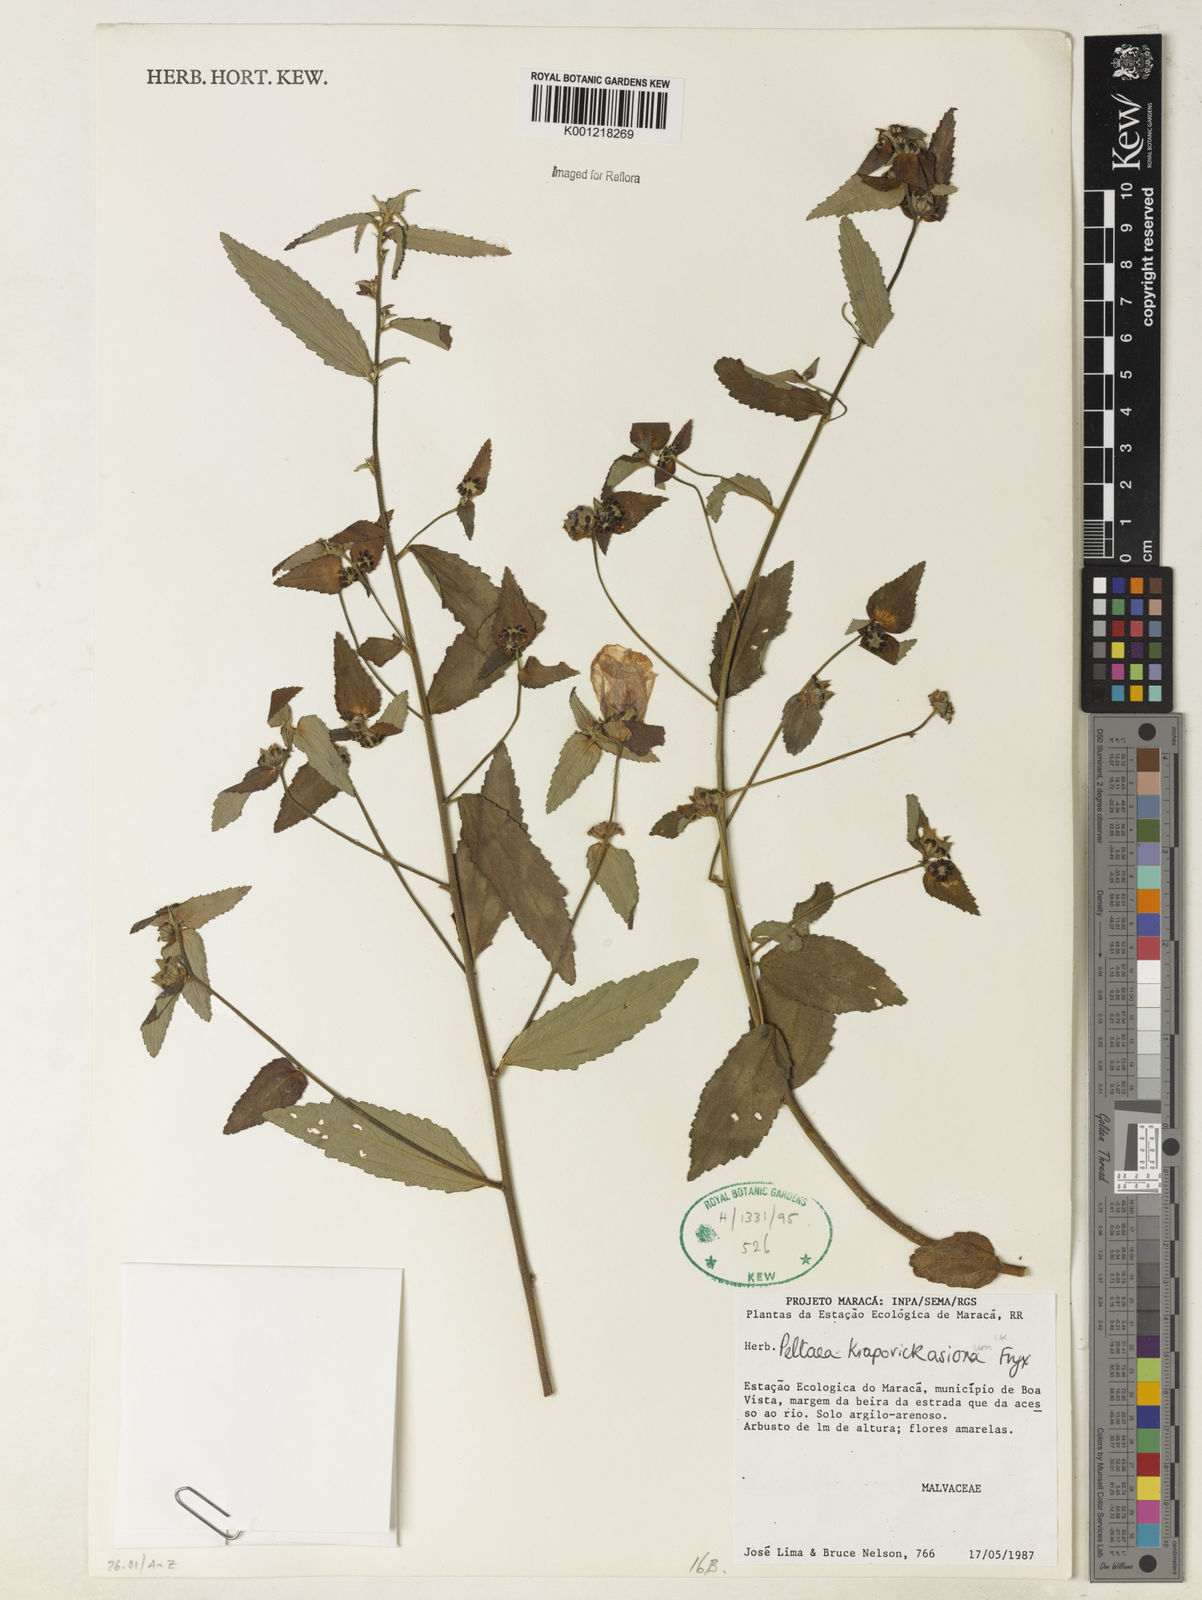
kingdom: Plantae
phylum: Tracheophyta
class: Magnoliopsida
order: Malvales
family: Malvaceae
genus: Peltaea
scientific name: Peltaea krapovickasiorum
